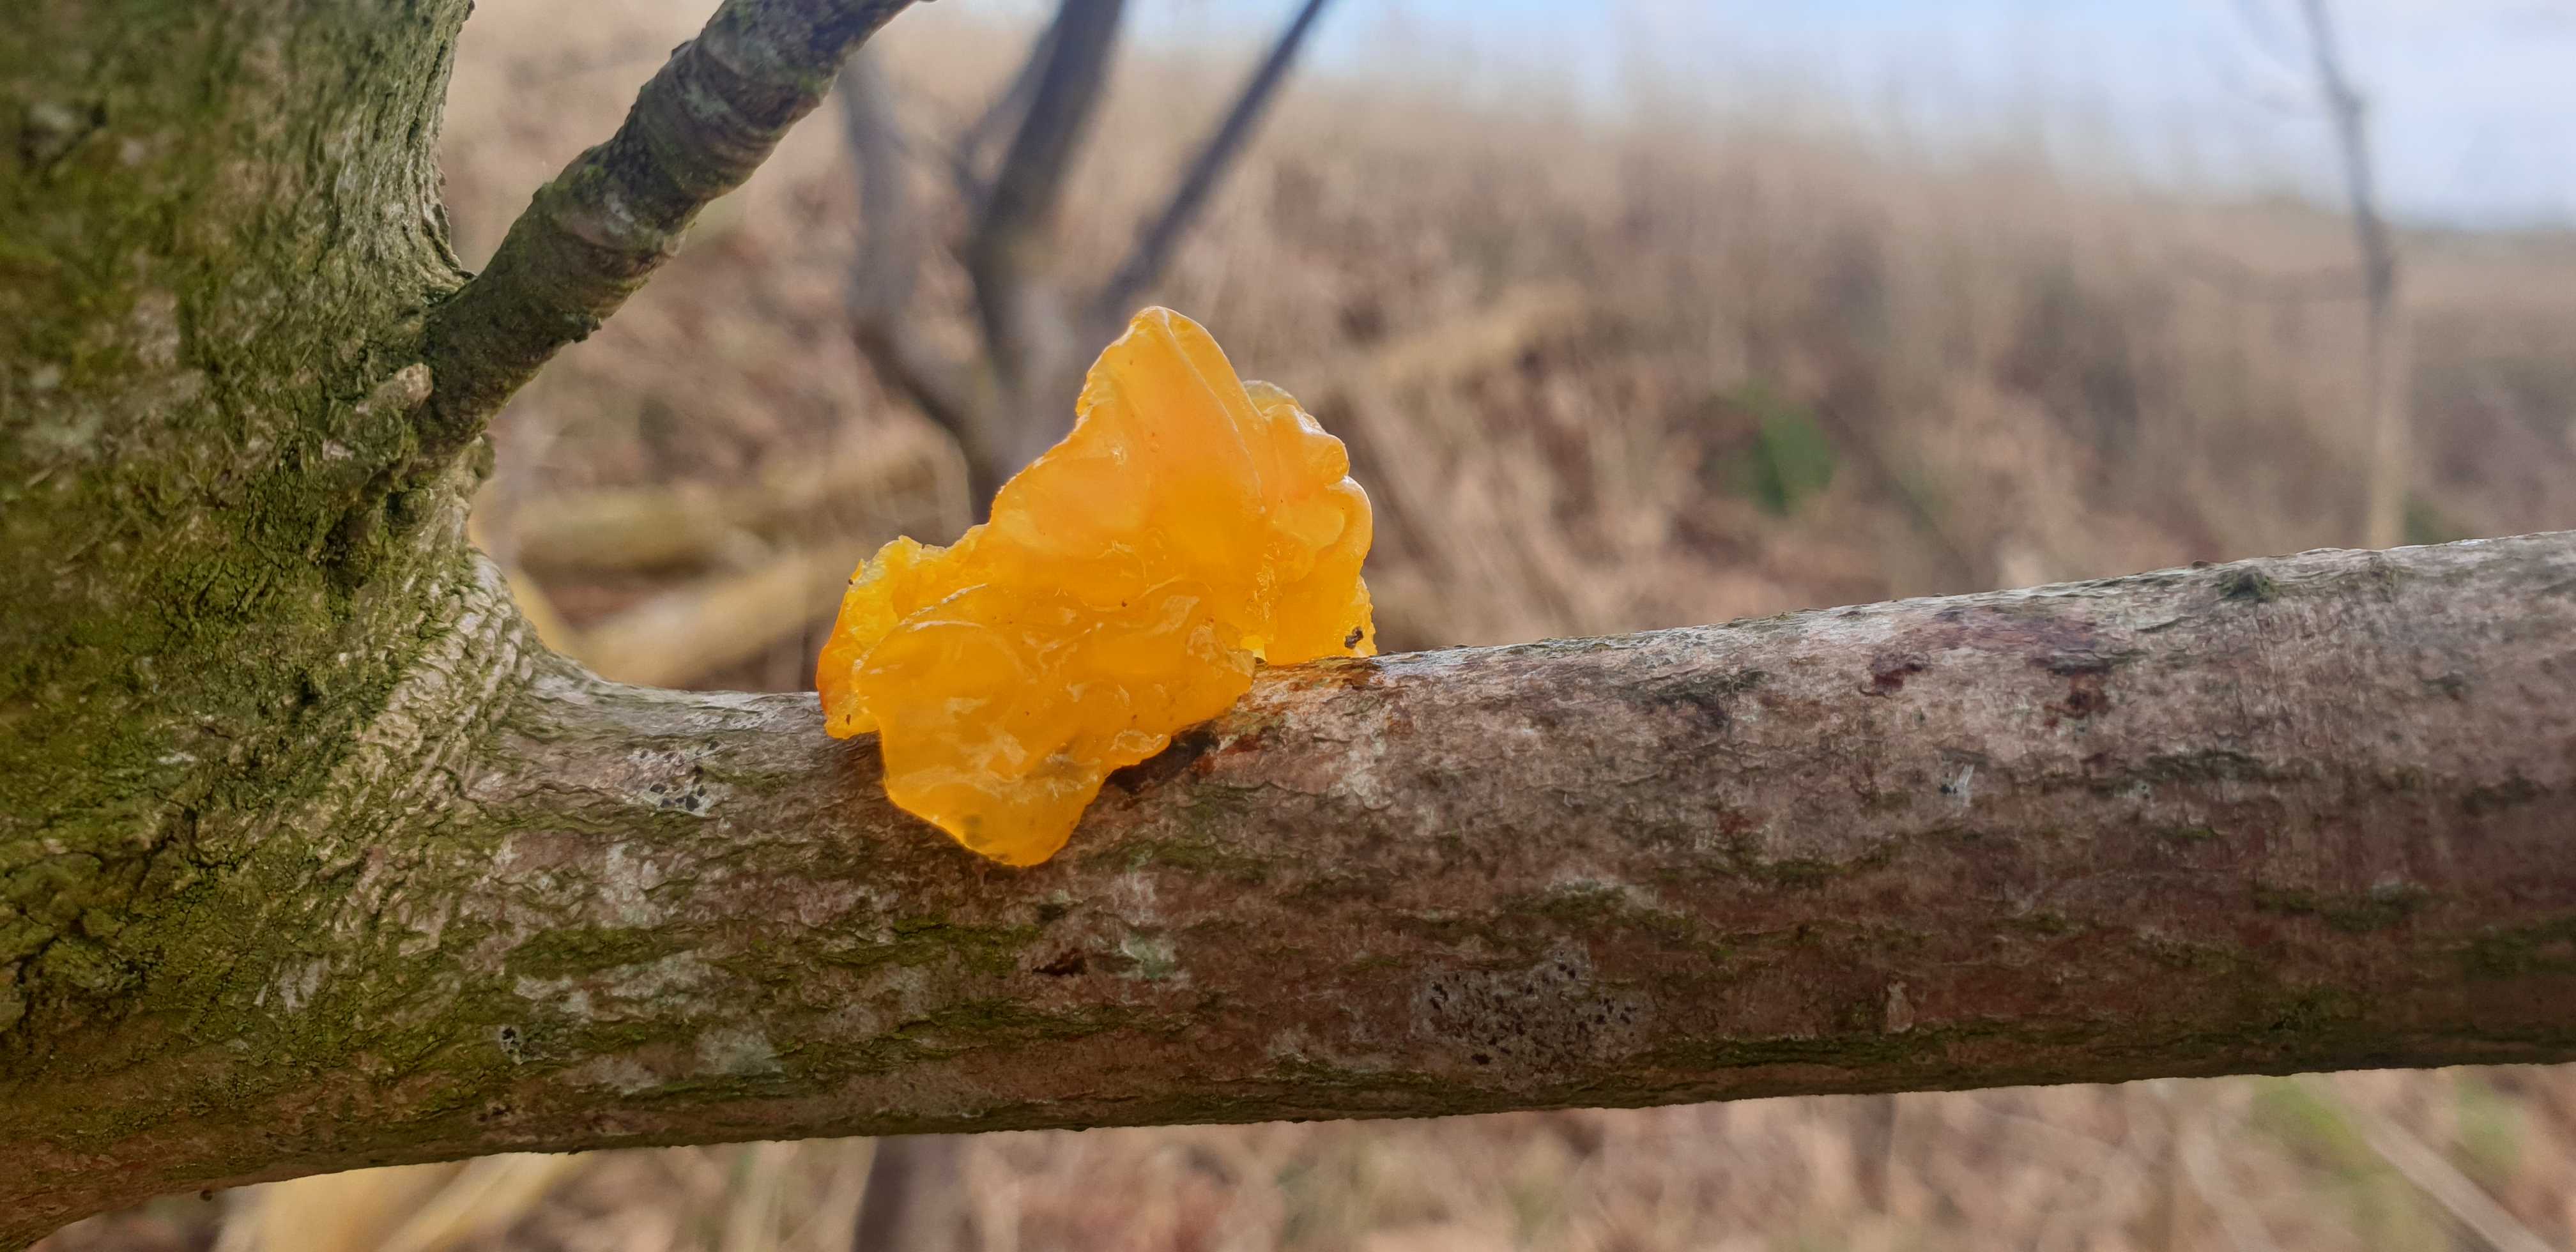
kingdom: Fungi
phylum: Basidiomycota
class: Tremellomycetes
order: Tremellales
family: Tremellaceae
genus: Tremella
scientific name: Tremella mesenterica
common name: gul bævresvamp
